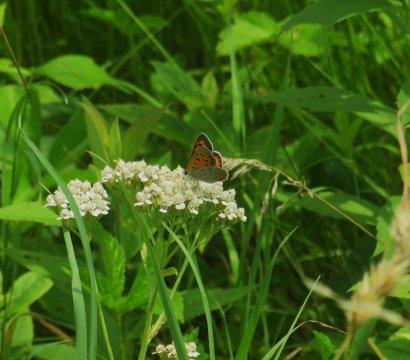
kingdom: Animalia
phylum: Arthropoda
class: Insecta
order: Lepidoptera
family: Lycaenidae
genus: Lycaena
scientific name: Lycaena phlaeas
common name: American Copper
